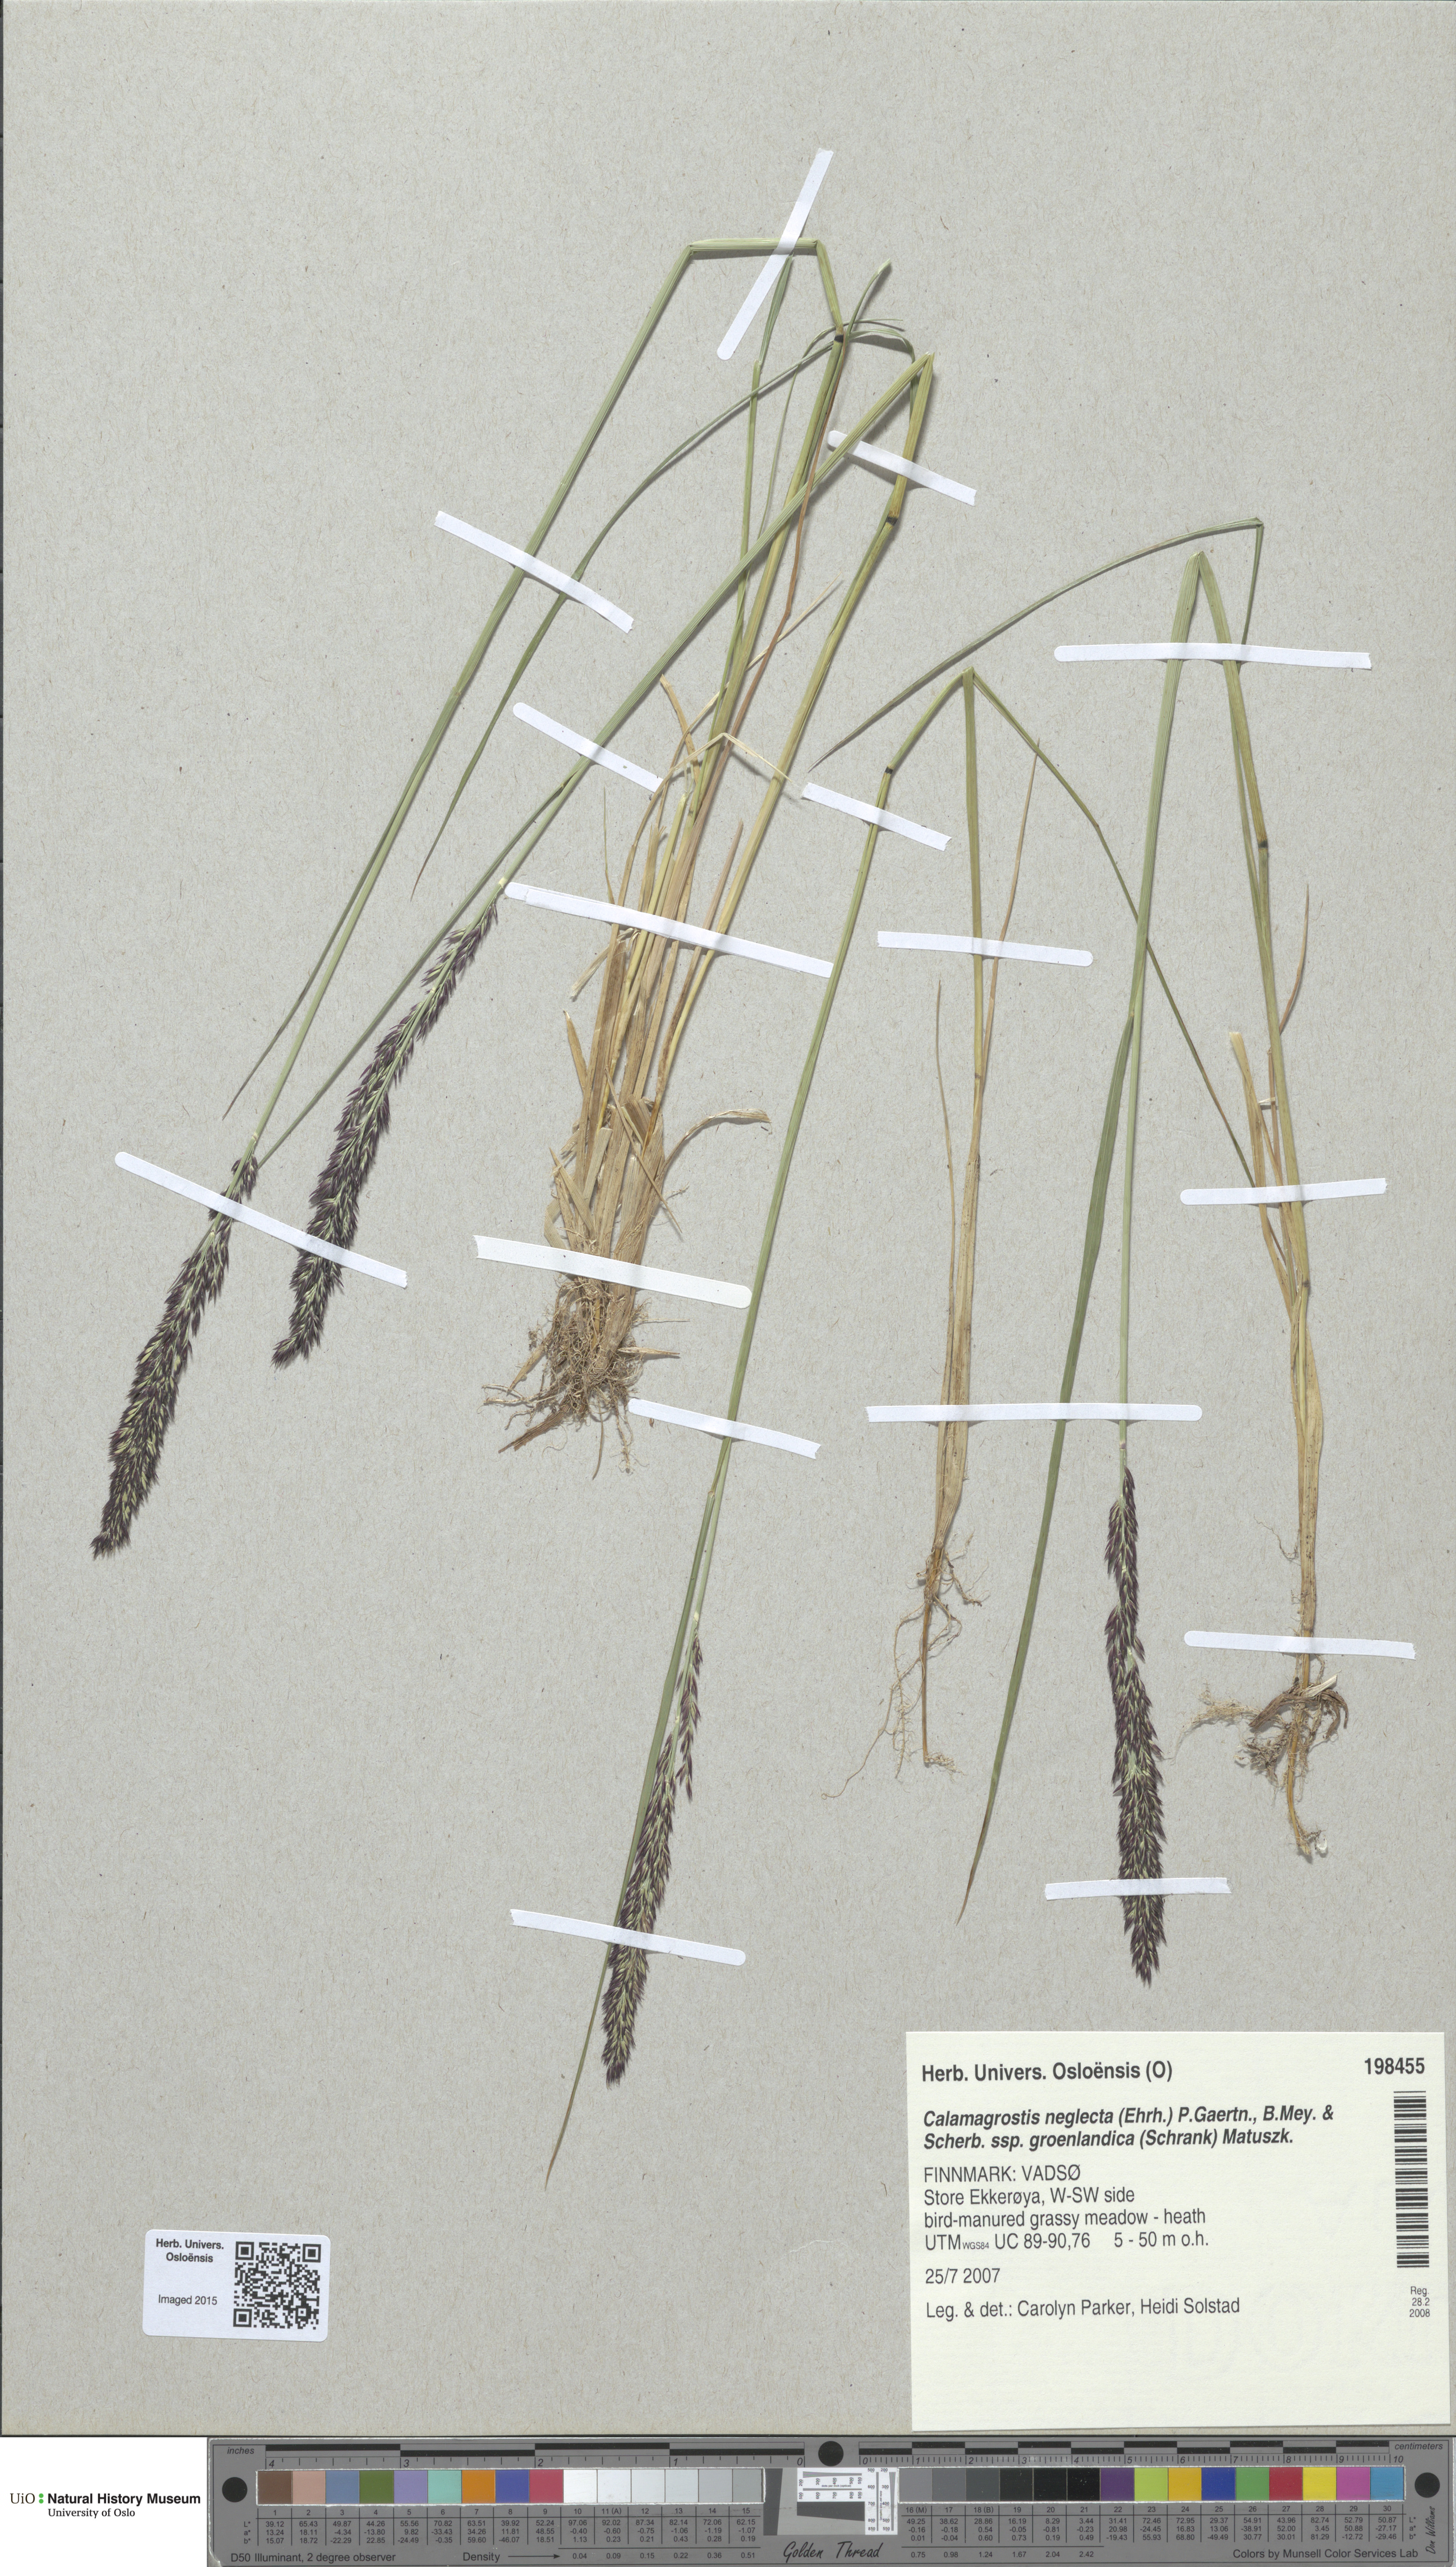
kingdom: Plantae
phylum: Tracheophyta
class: Liliopsida
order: Poales
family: Poaceae
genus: Calamagrostis
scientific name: Calamagrostis stricta
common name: Narrow small-reed
